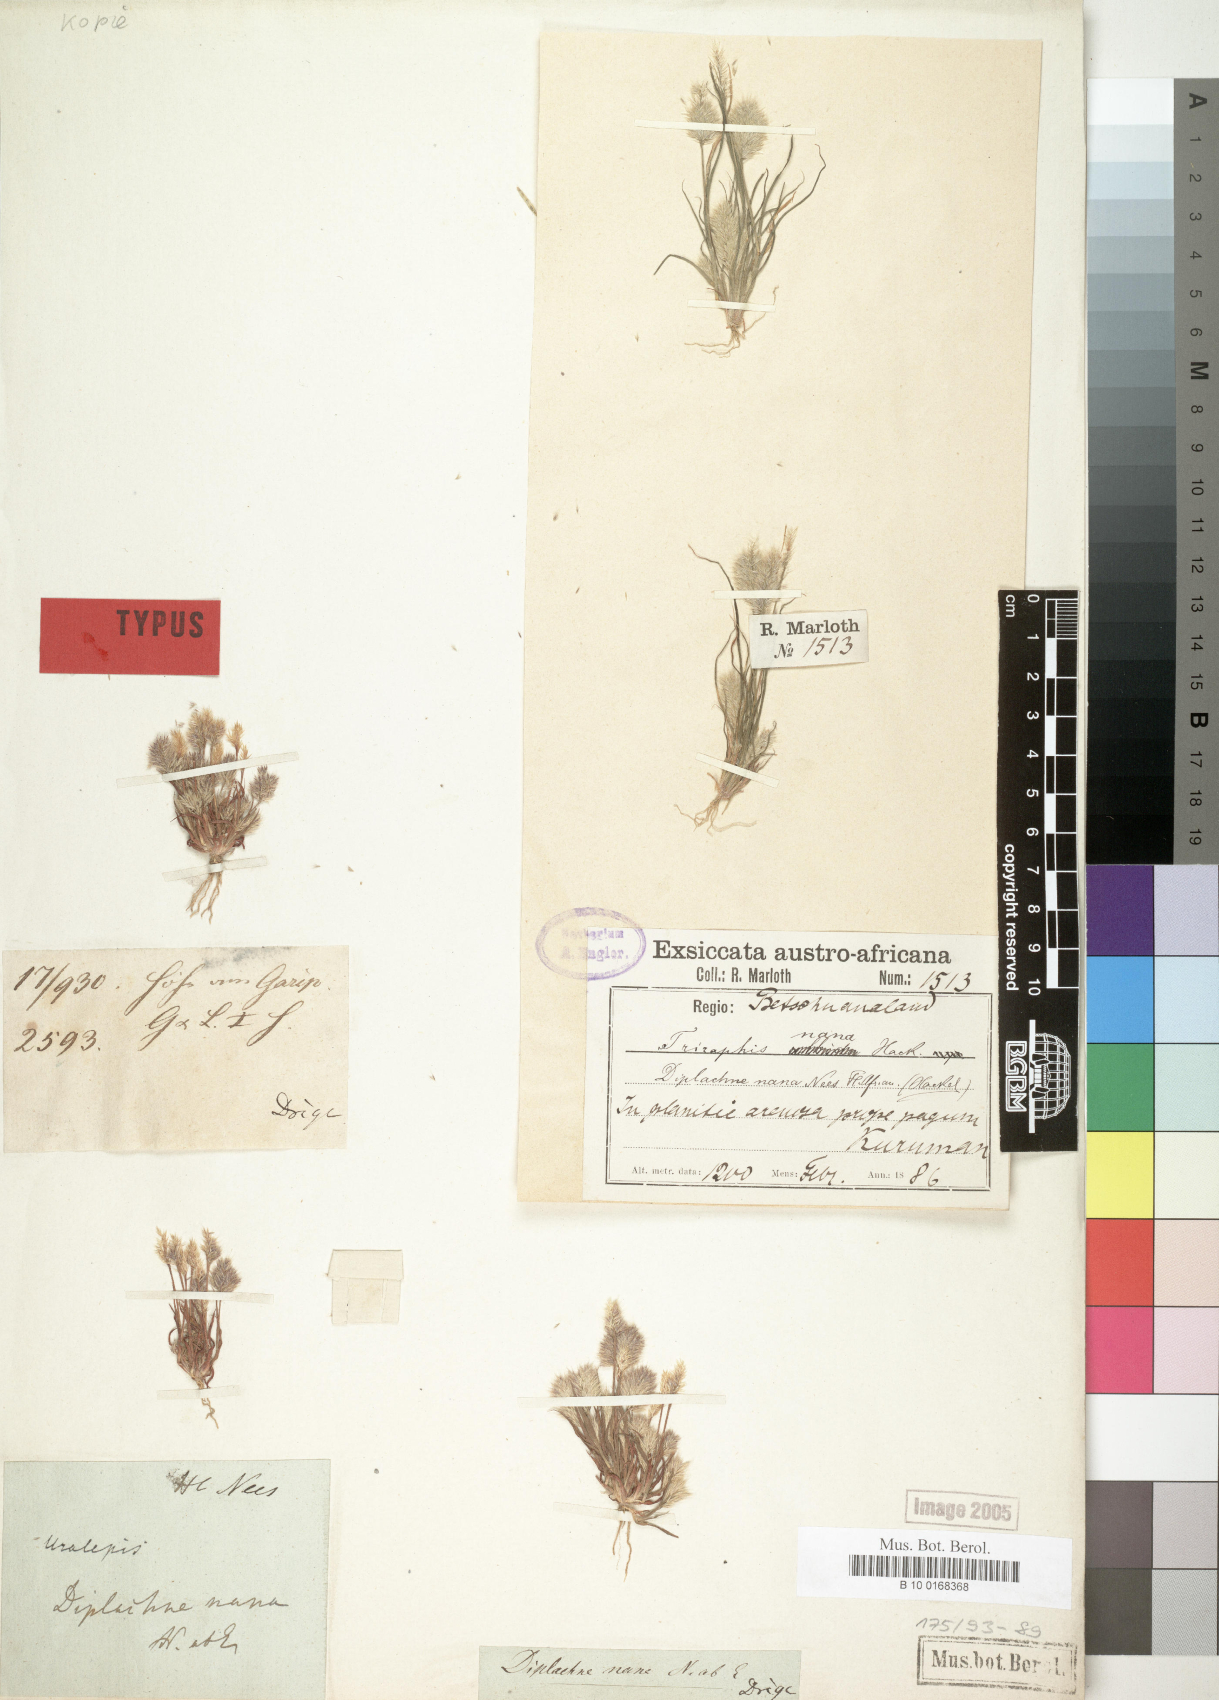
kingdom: Plantae
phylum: Tracheophyta
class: Liliopsida
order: Poales
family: Poaceae
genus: Triraphis
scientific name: Triraphis pumilio
